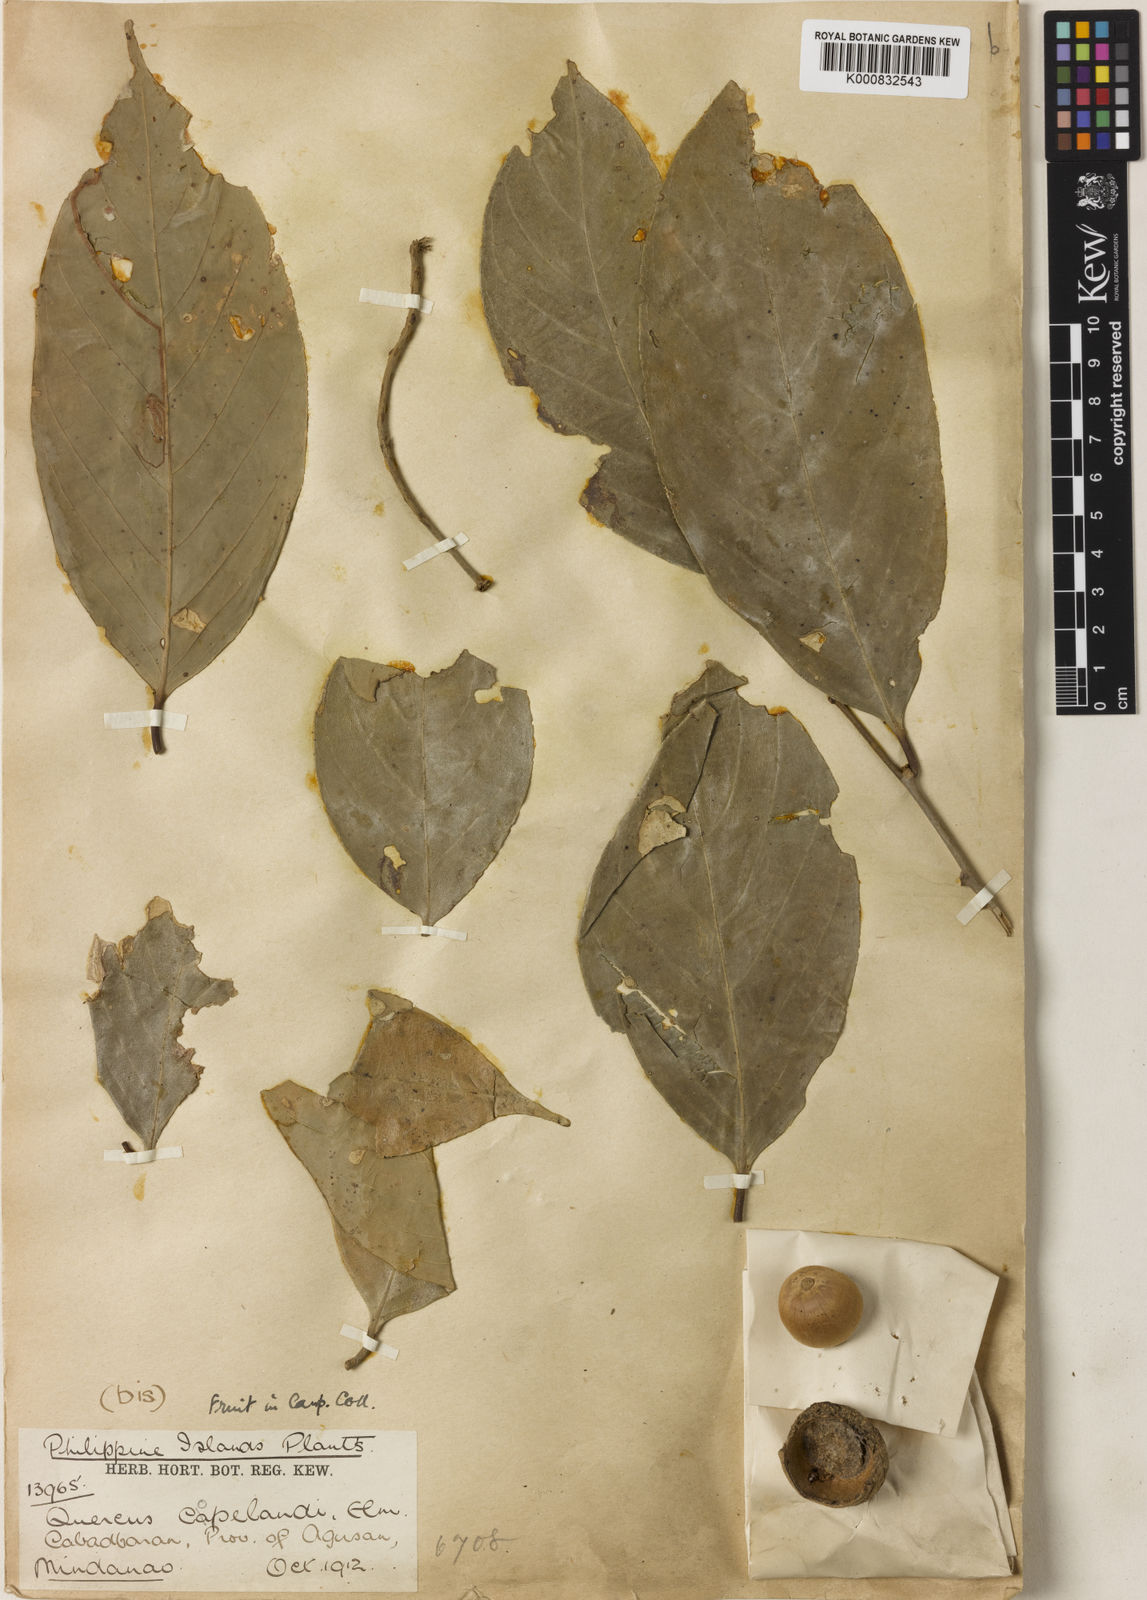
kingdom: Plantae
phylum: Tracheophyta
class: Magnoliopsida
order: Fagales
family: Fagaceae
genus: Lithocarpus
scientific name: Lithocarpus glutinosus
